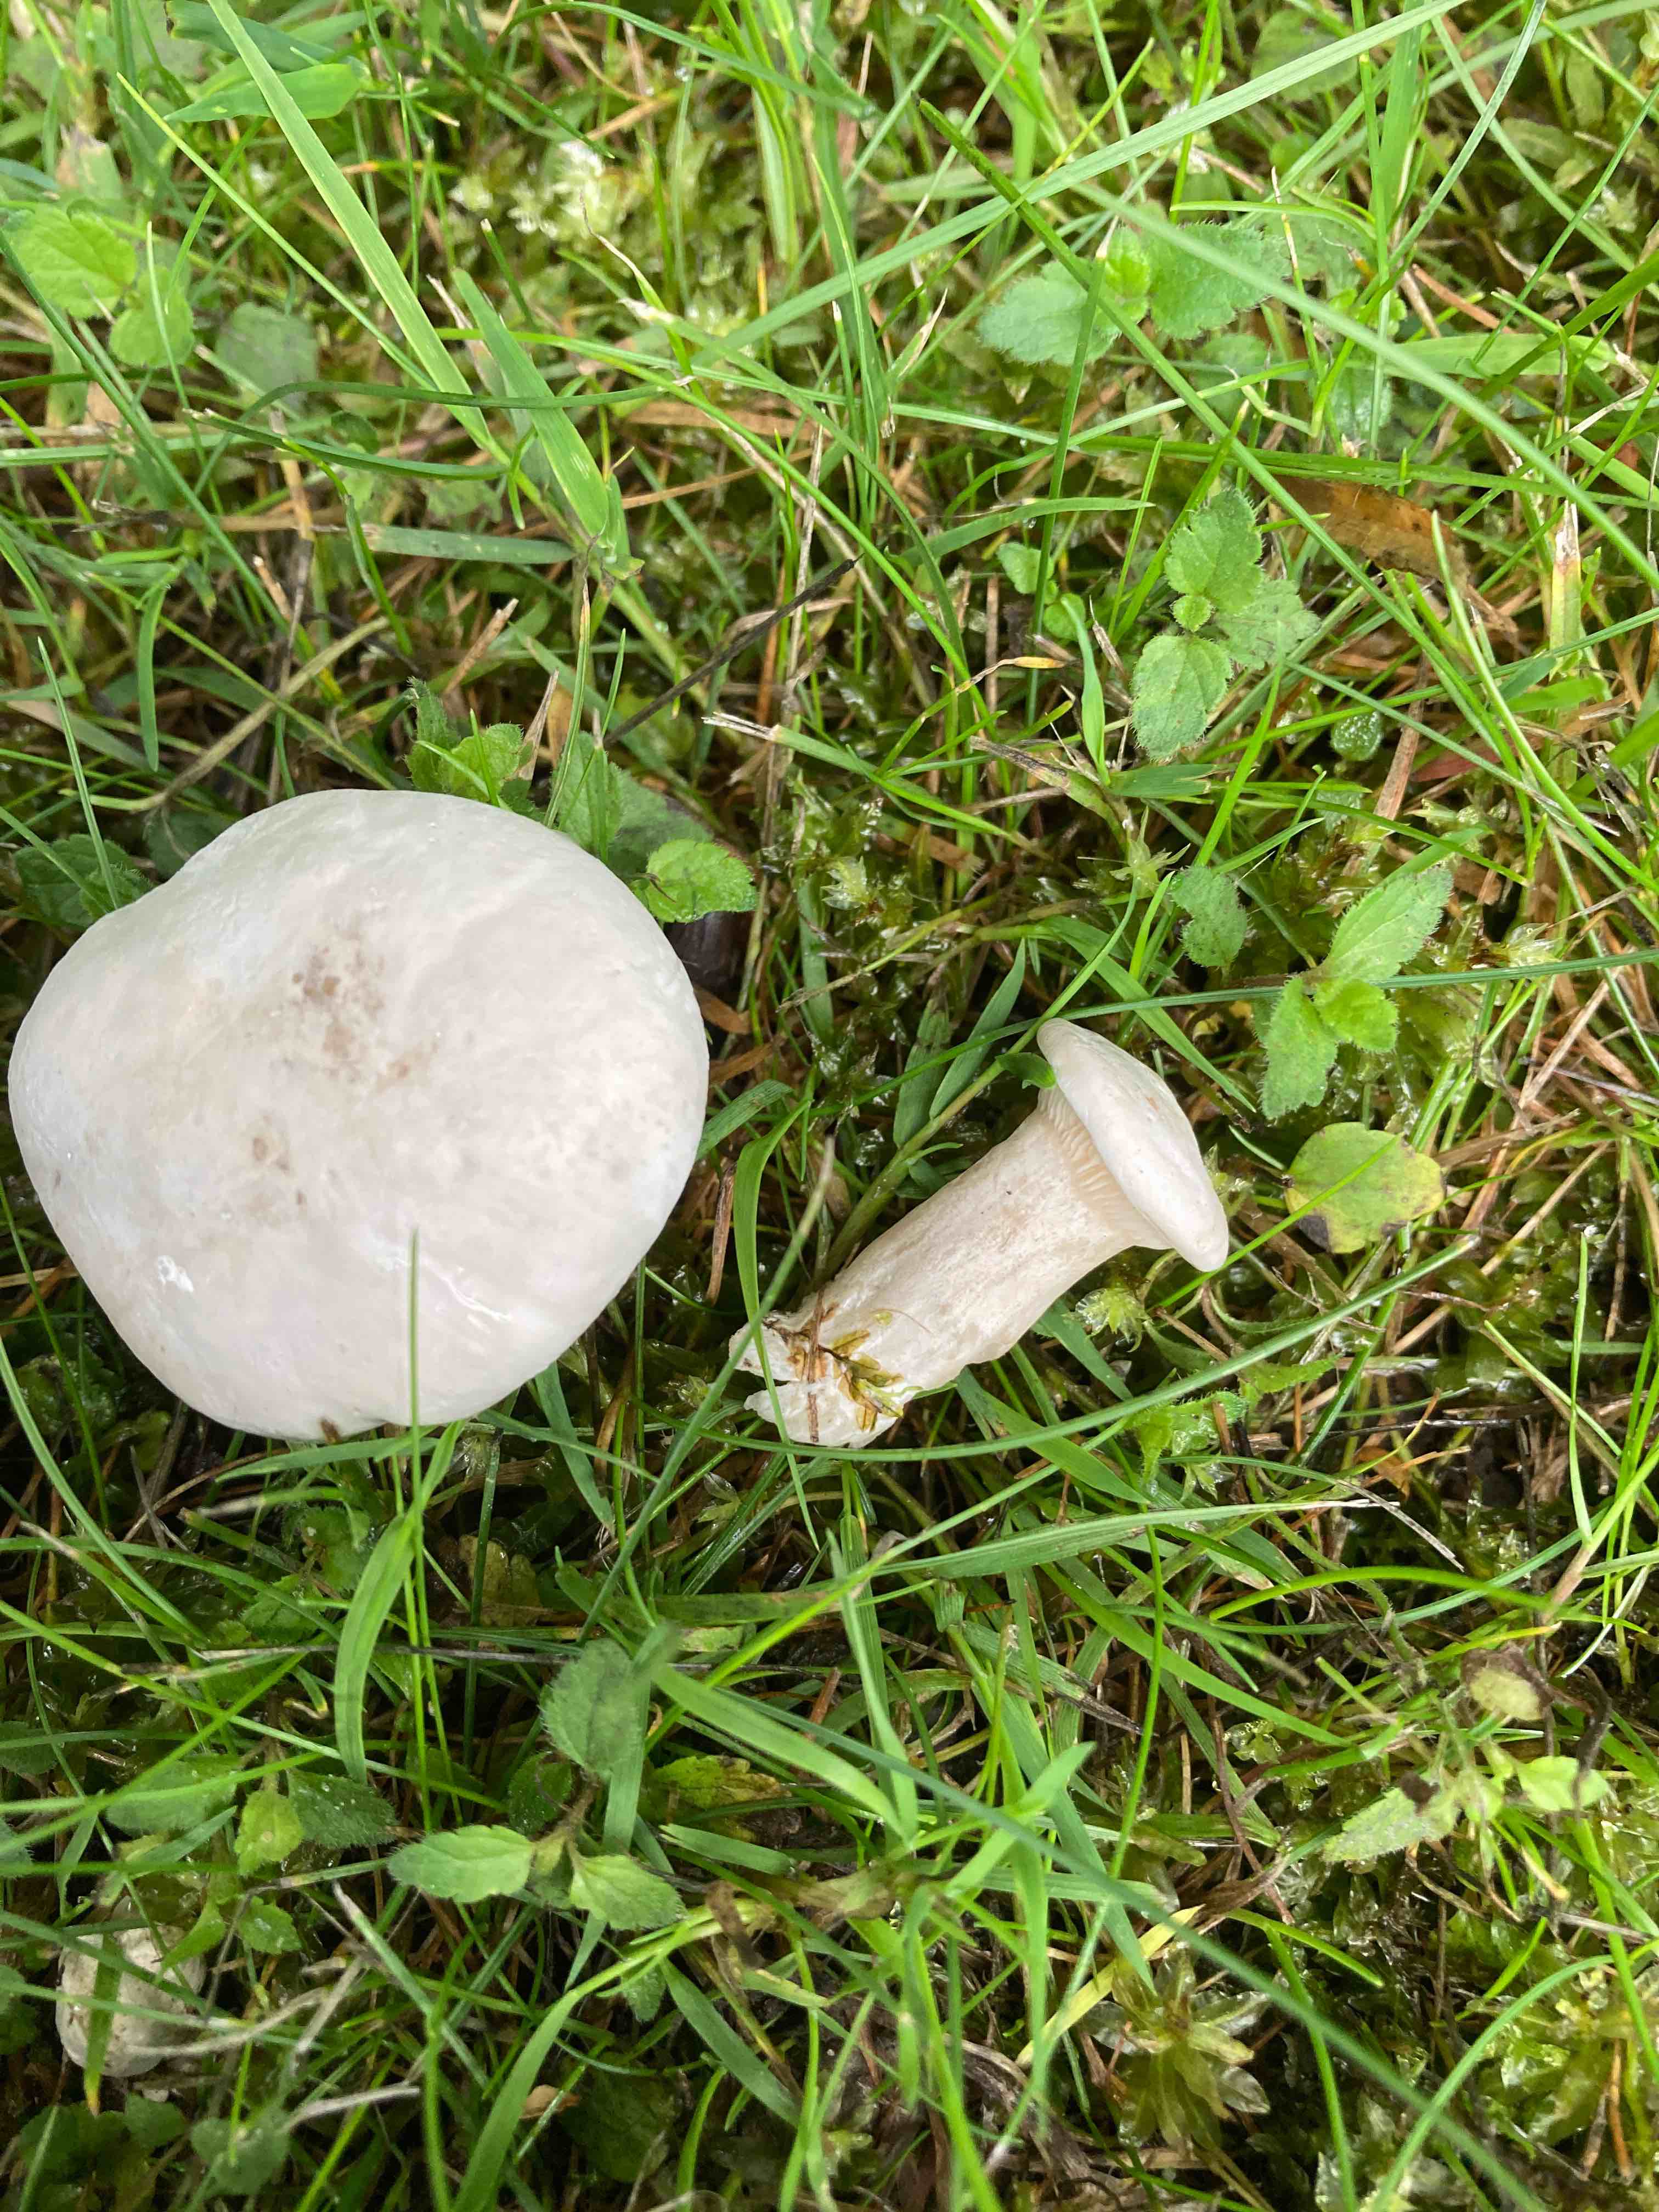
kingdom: Fungi
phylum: Basidiomycota
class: Agaricomycetes
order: Agaricales
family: Entolomataceae
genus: Clitopilus
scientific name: Clitopilus prunulus
